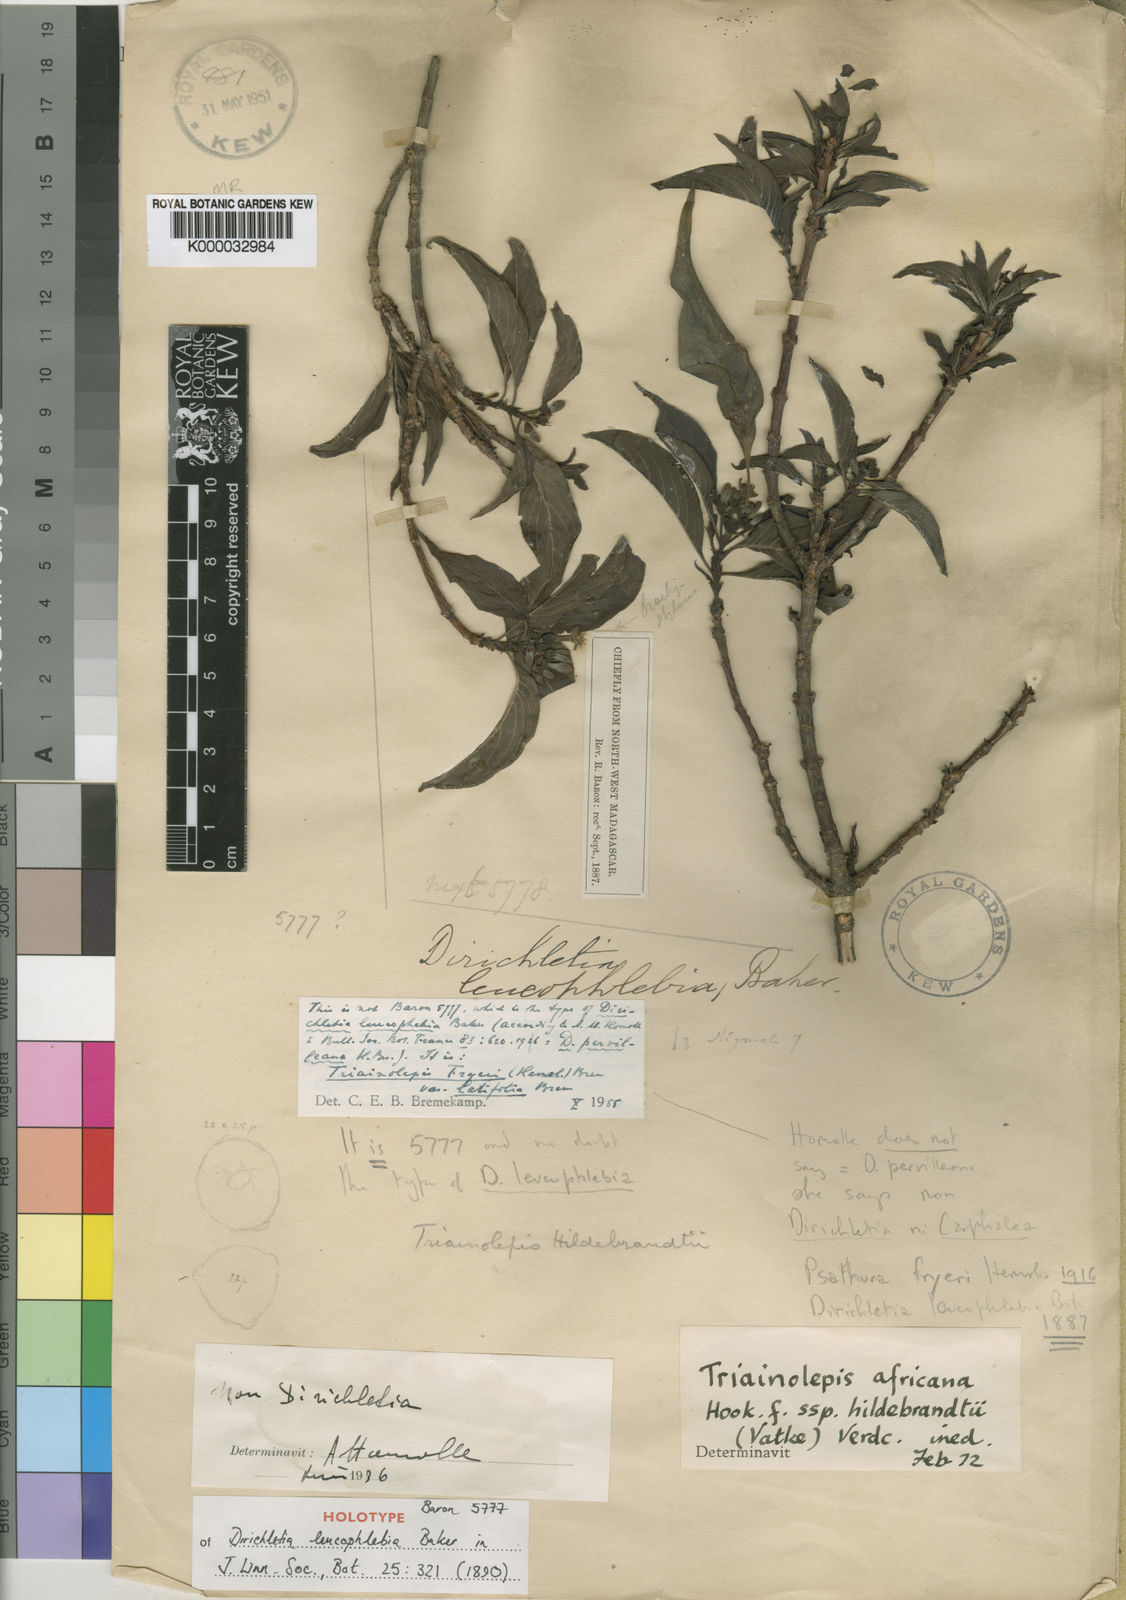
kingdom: Plantae
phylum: Tracheophyta
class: Magnoliopsida
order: Gentianales
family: Rubiaceae
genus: Triainolepis
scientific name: Triainolepis africana
